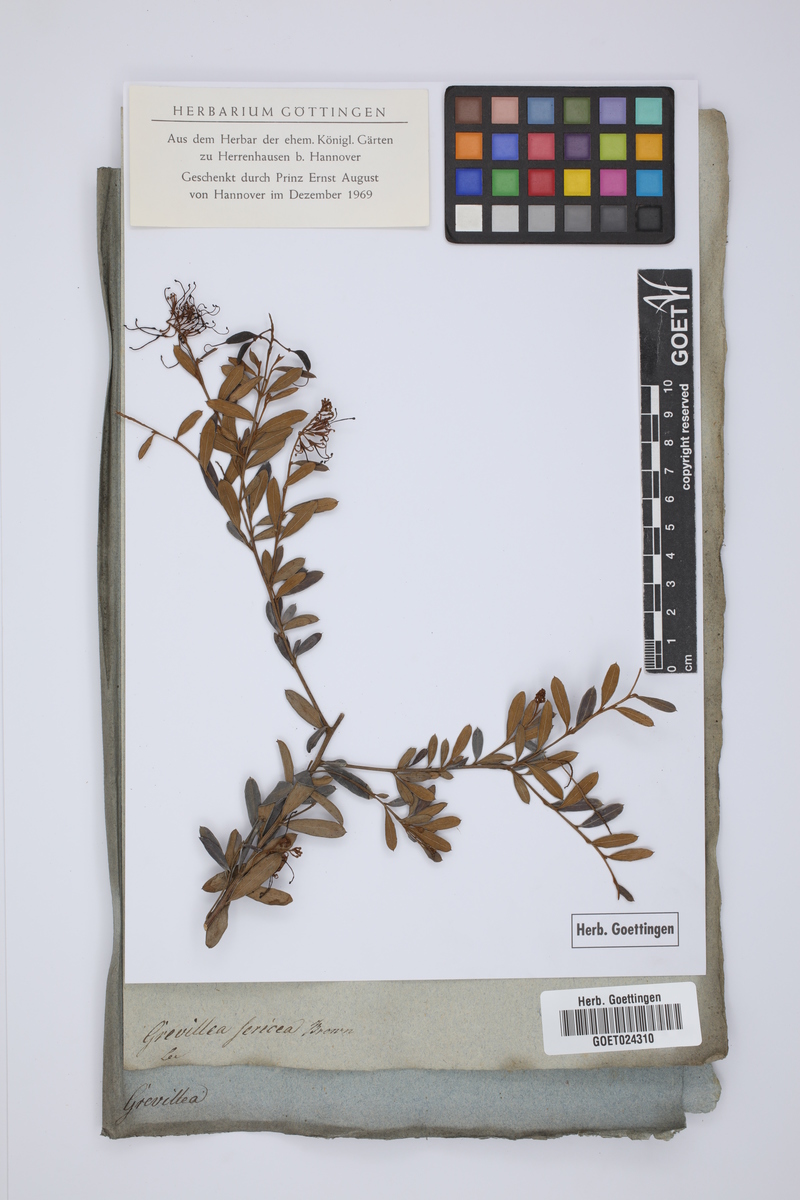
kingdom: Plantae
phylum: Tracheophyta
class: Magnoliopsida
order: Proteales
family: Proteaceae
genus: Grevillea
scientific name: Grevillea sericea
